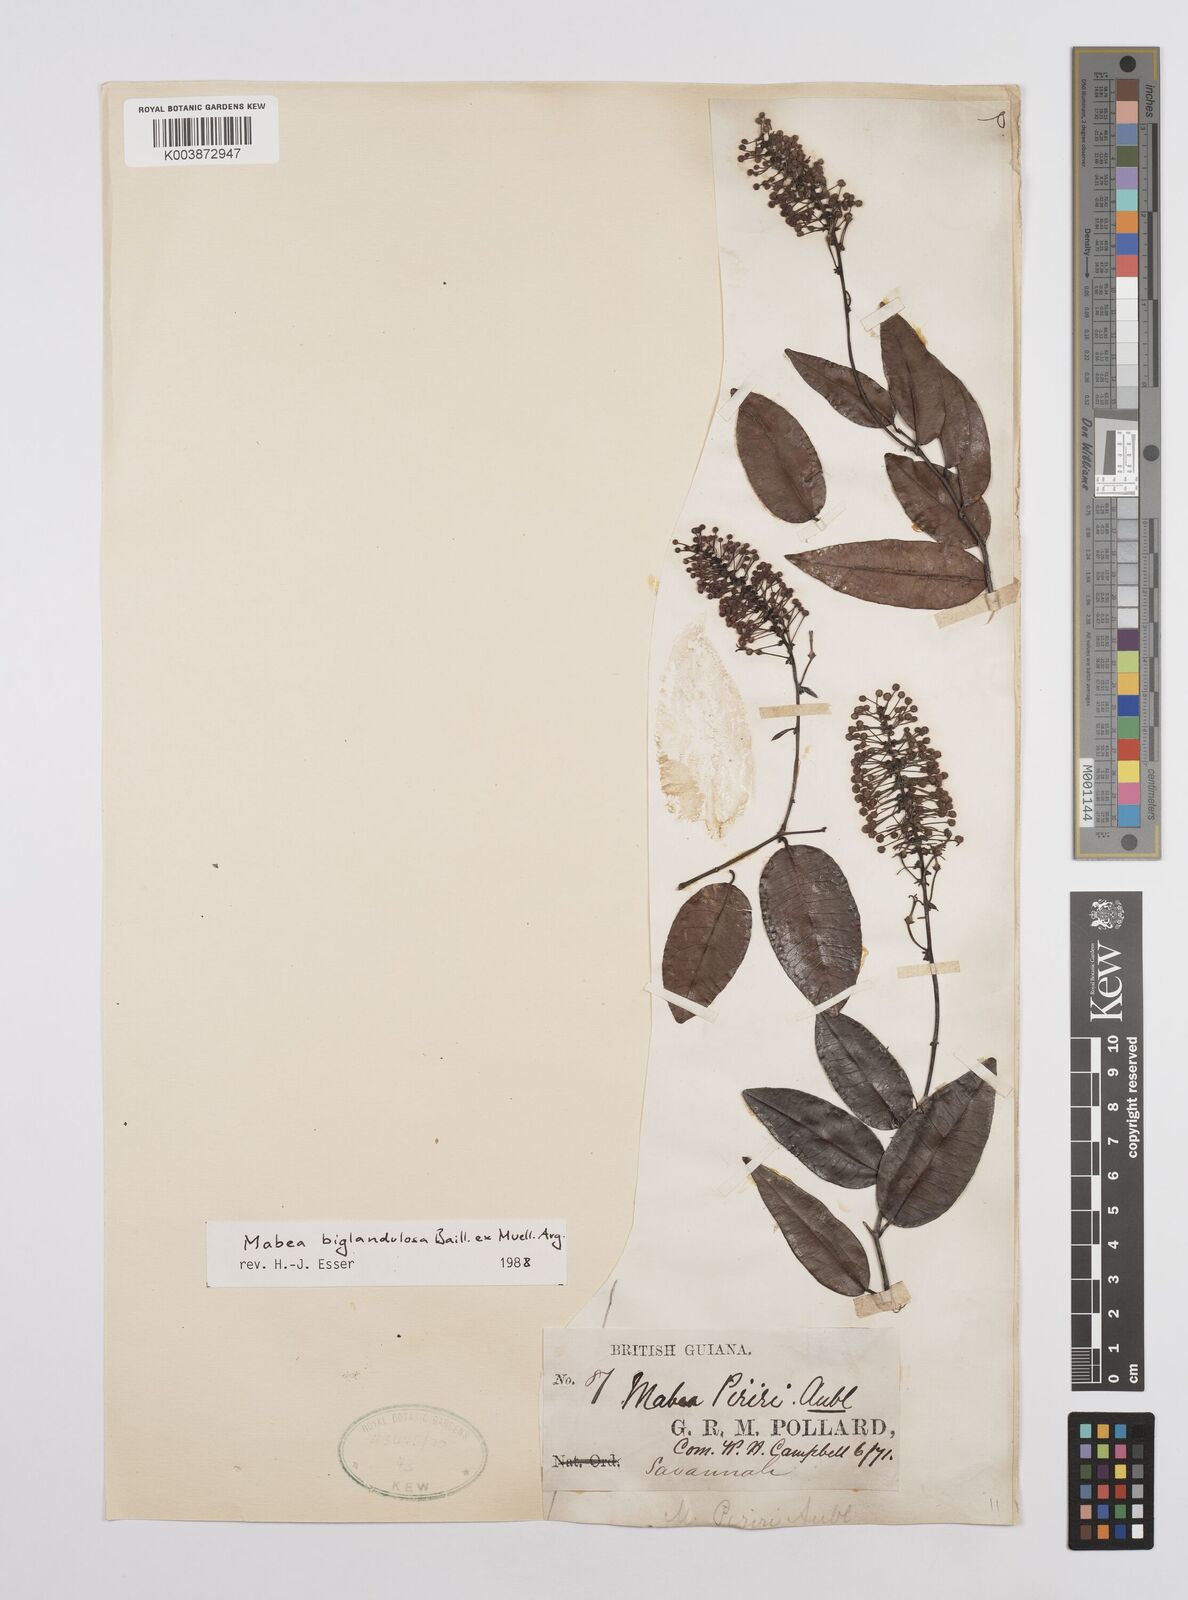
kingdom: Plantae
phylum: Tracheophyta
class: Magnoliopsida
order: Malpighiales
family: Euphorbiaceae
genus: Mabea
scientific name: Mabea biglandulosa
